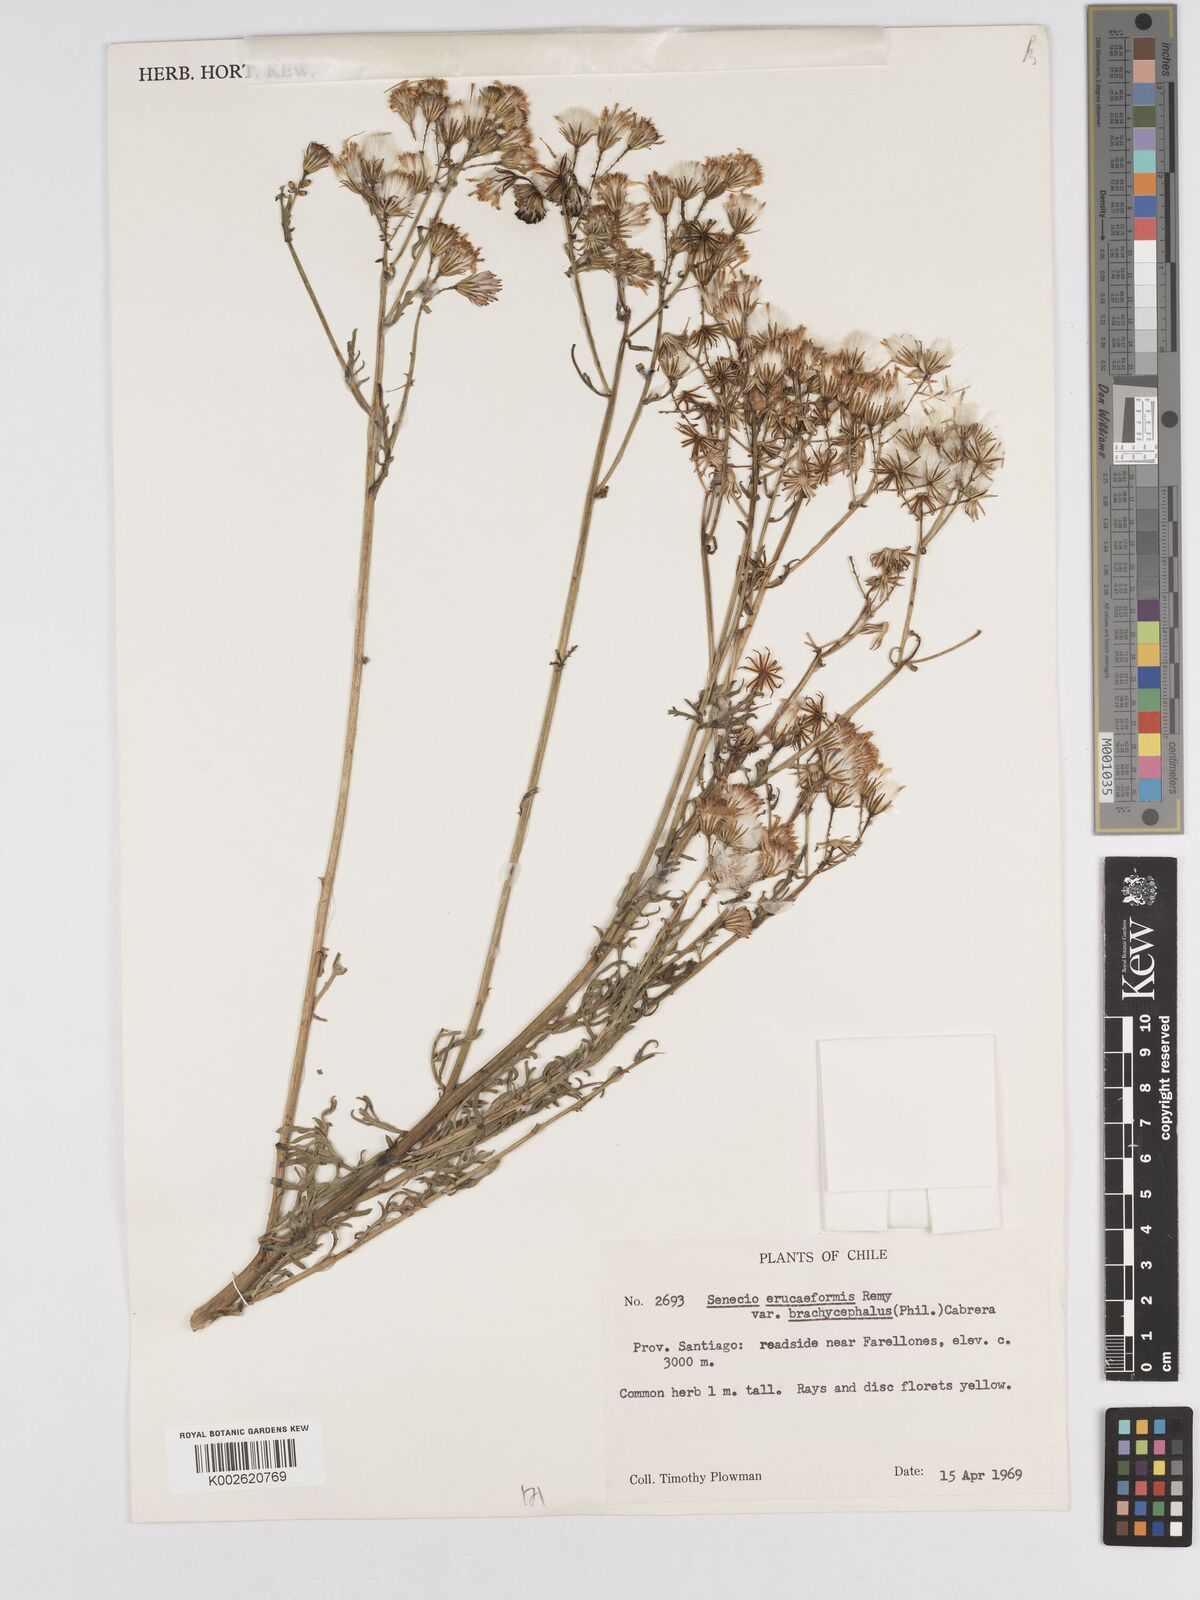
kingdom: Plantae
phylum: Tracheophyta
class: Magnoliopsida
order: Asterales
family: Asteraceae
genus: Senecio
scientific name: Senecio eruciformis
